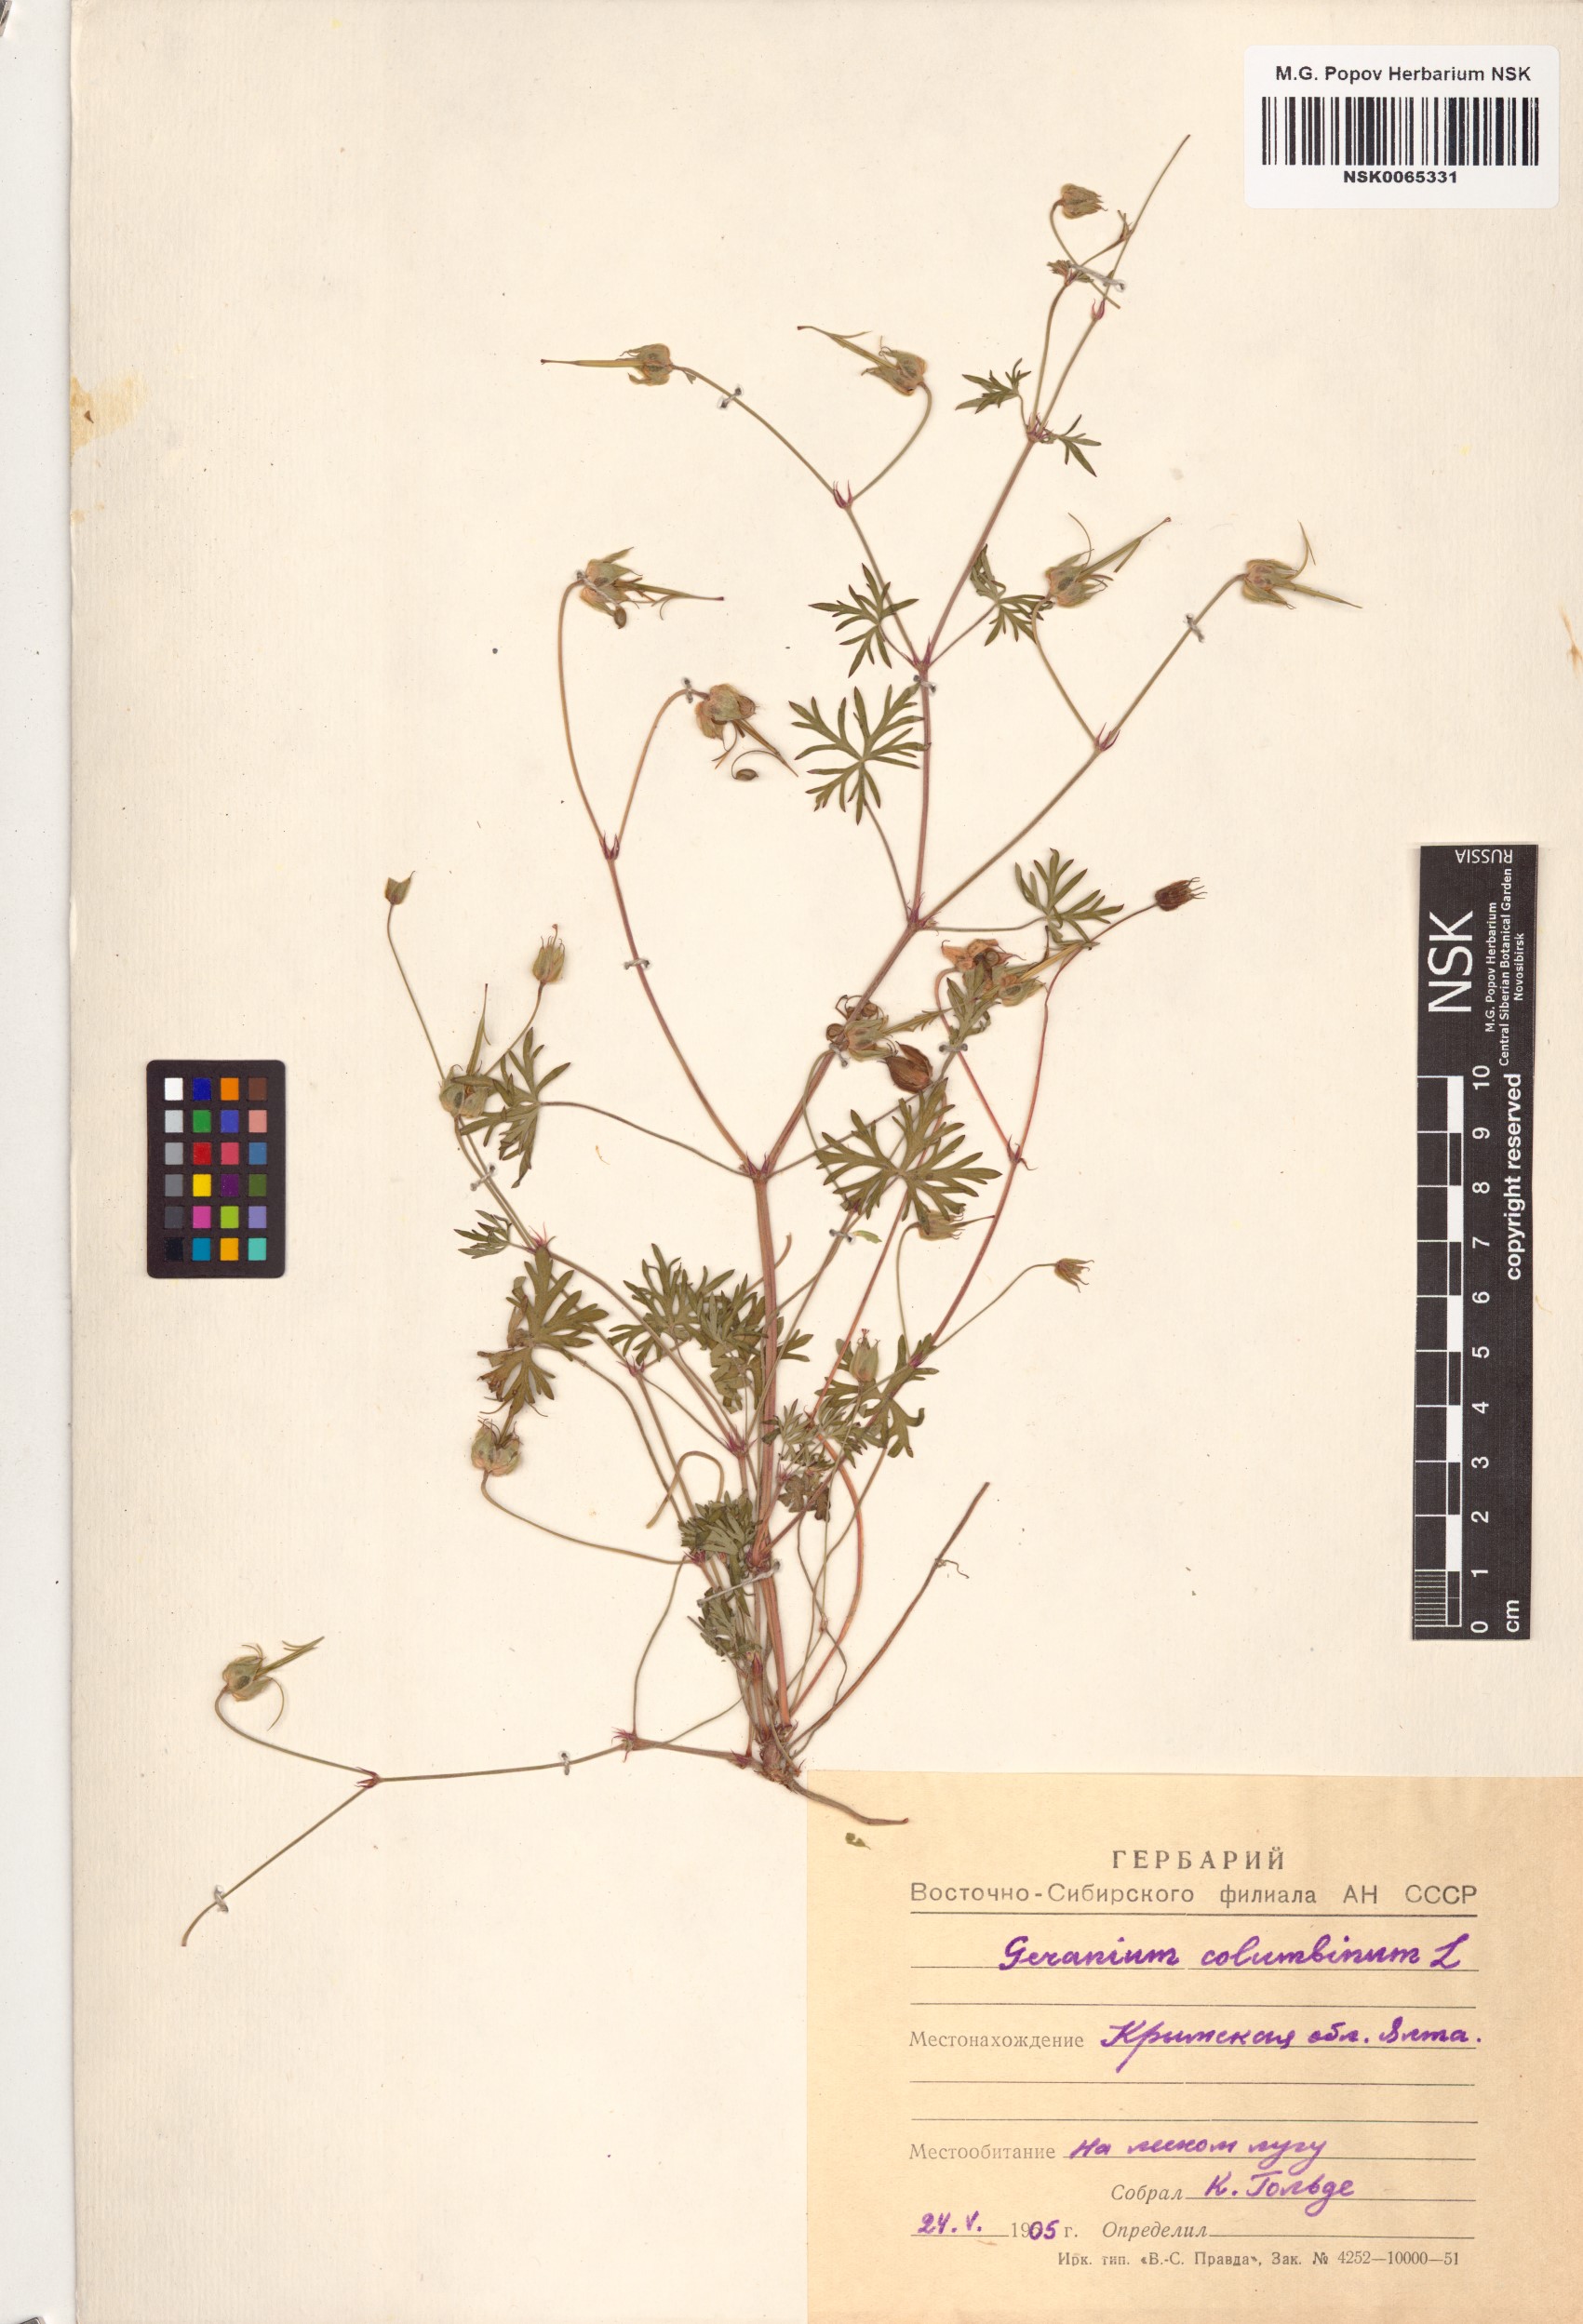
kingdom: Plantae
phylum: Tracheophyta
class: Magnoliopsida
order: Geraniales
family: Geraniaceae
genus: Geranium
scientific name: Geranium columbinum
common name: Long-stalked crane's-bill
